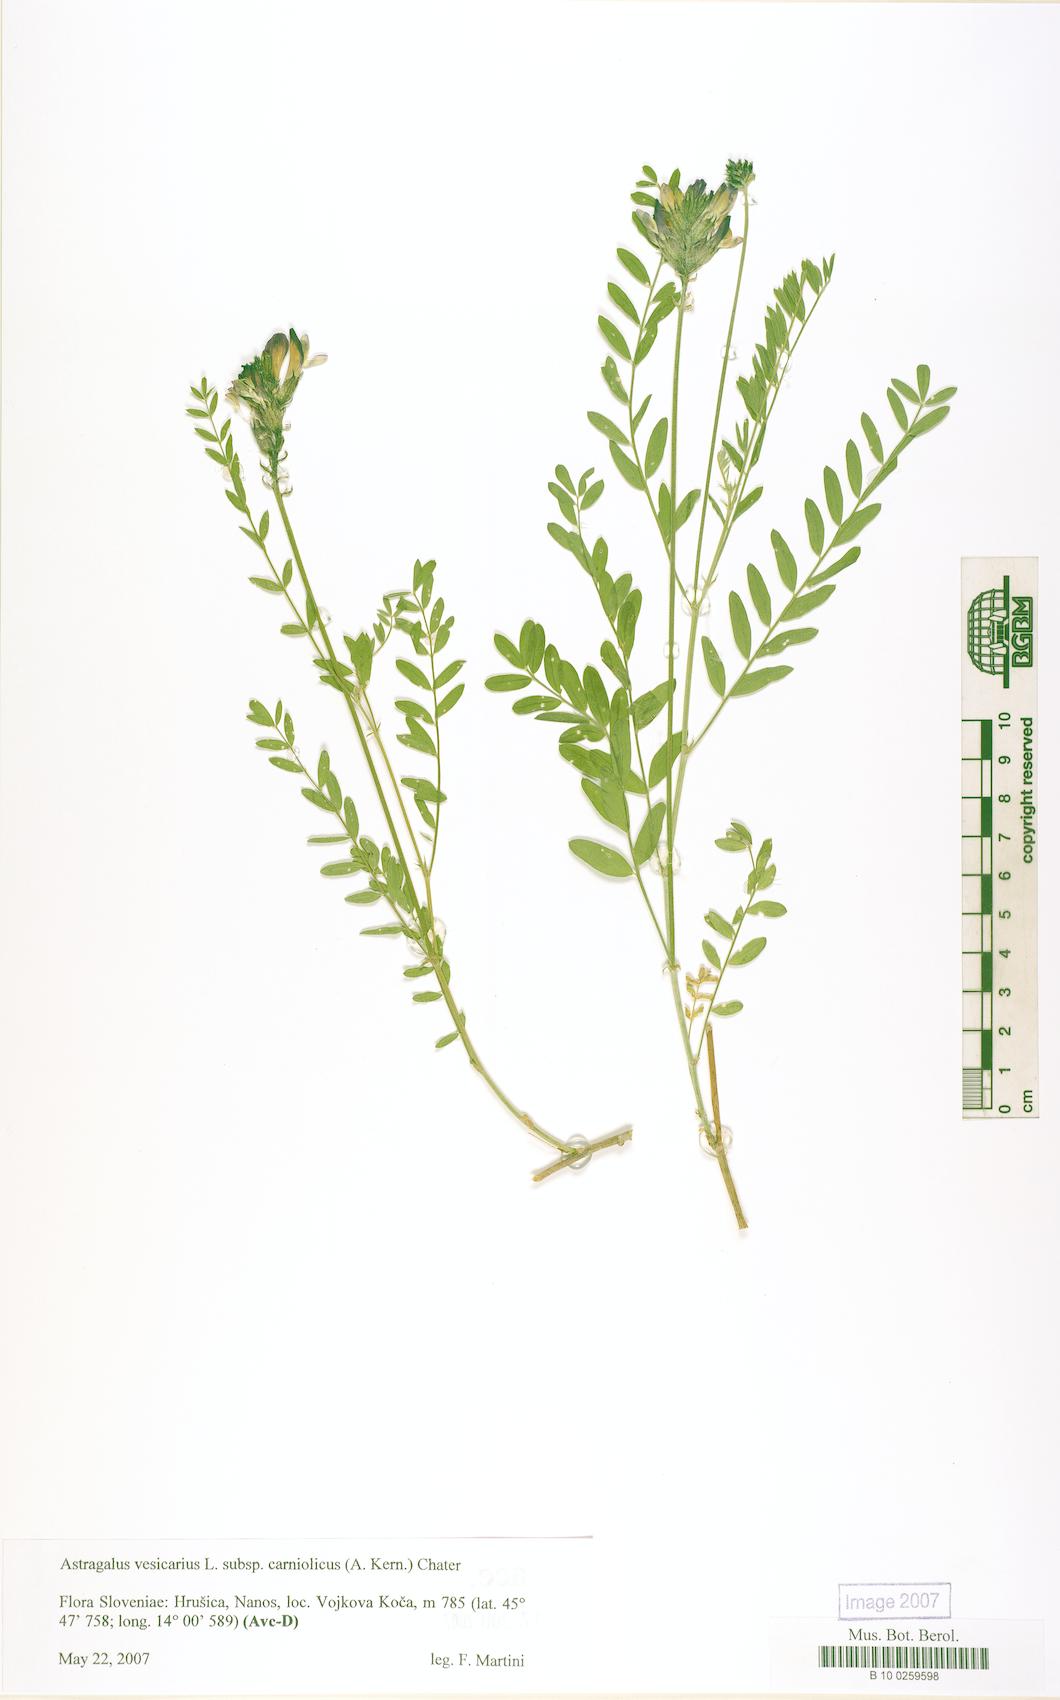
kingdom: Plantae
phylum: Tracheophyta
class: Magnoliopsida
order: Fabales
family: Fabaceae
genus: Astragalus
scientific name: Astragalus vesicarius
